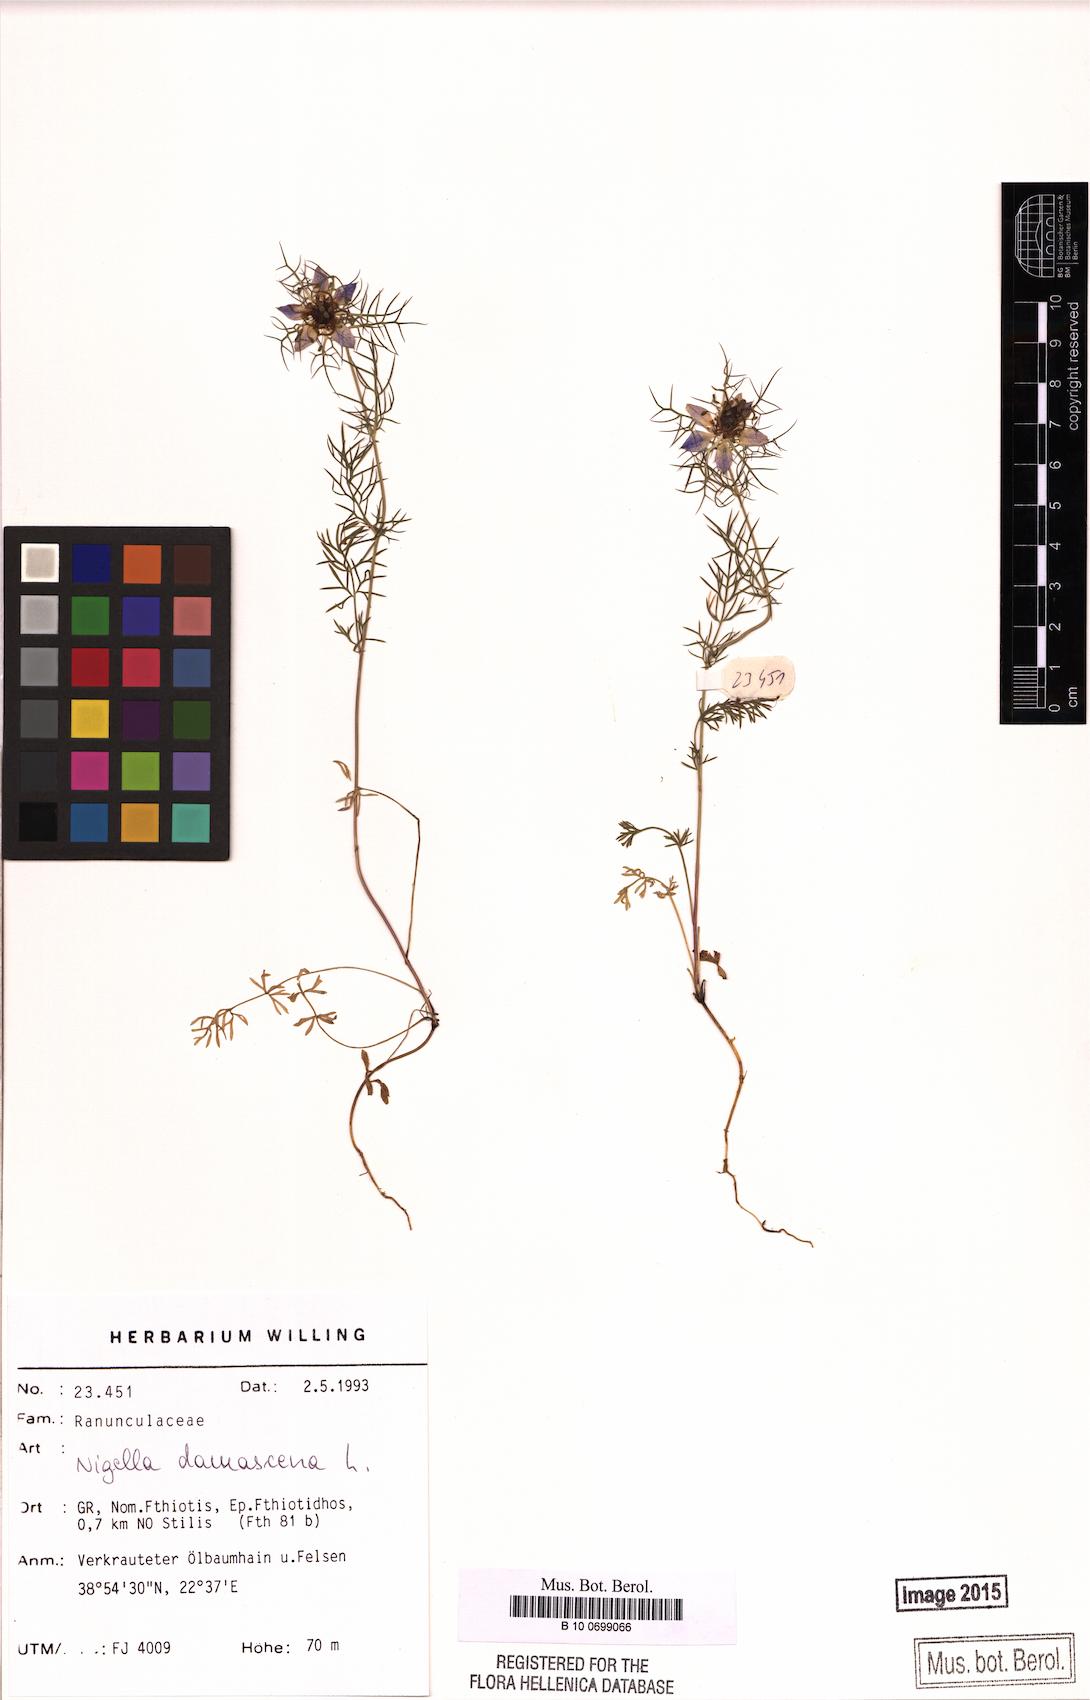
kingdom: Plantae
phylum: Tracheophyta
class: Magnoliopsida
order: Ranunculales
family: Ranunculaceae
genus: Nigella
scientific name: Nigella damascena
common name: Love-in-a-mist
